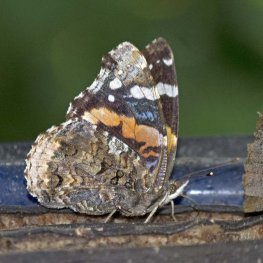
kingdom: Animalia
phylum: Arthropoda
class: Insecta
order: Lepidoptera
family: Nymphalidae
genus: Vanessa
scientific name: Vanessa atalanta
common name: Red Admiral
